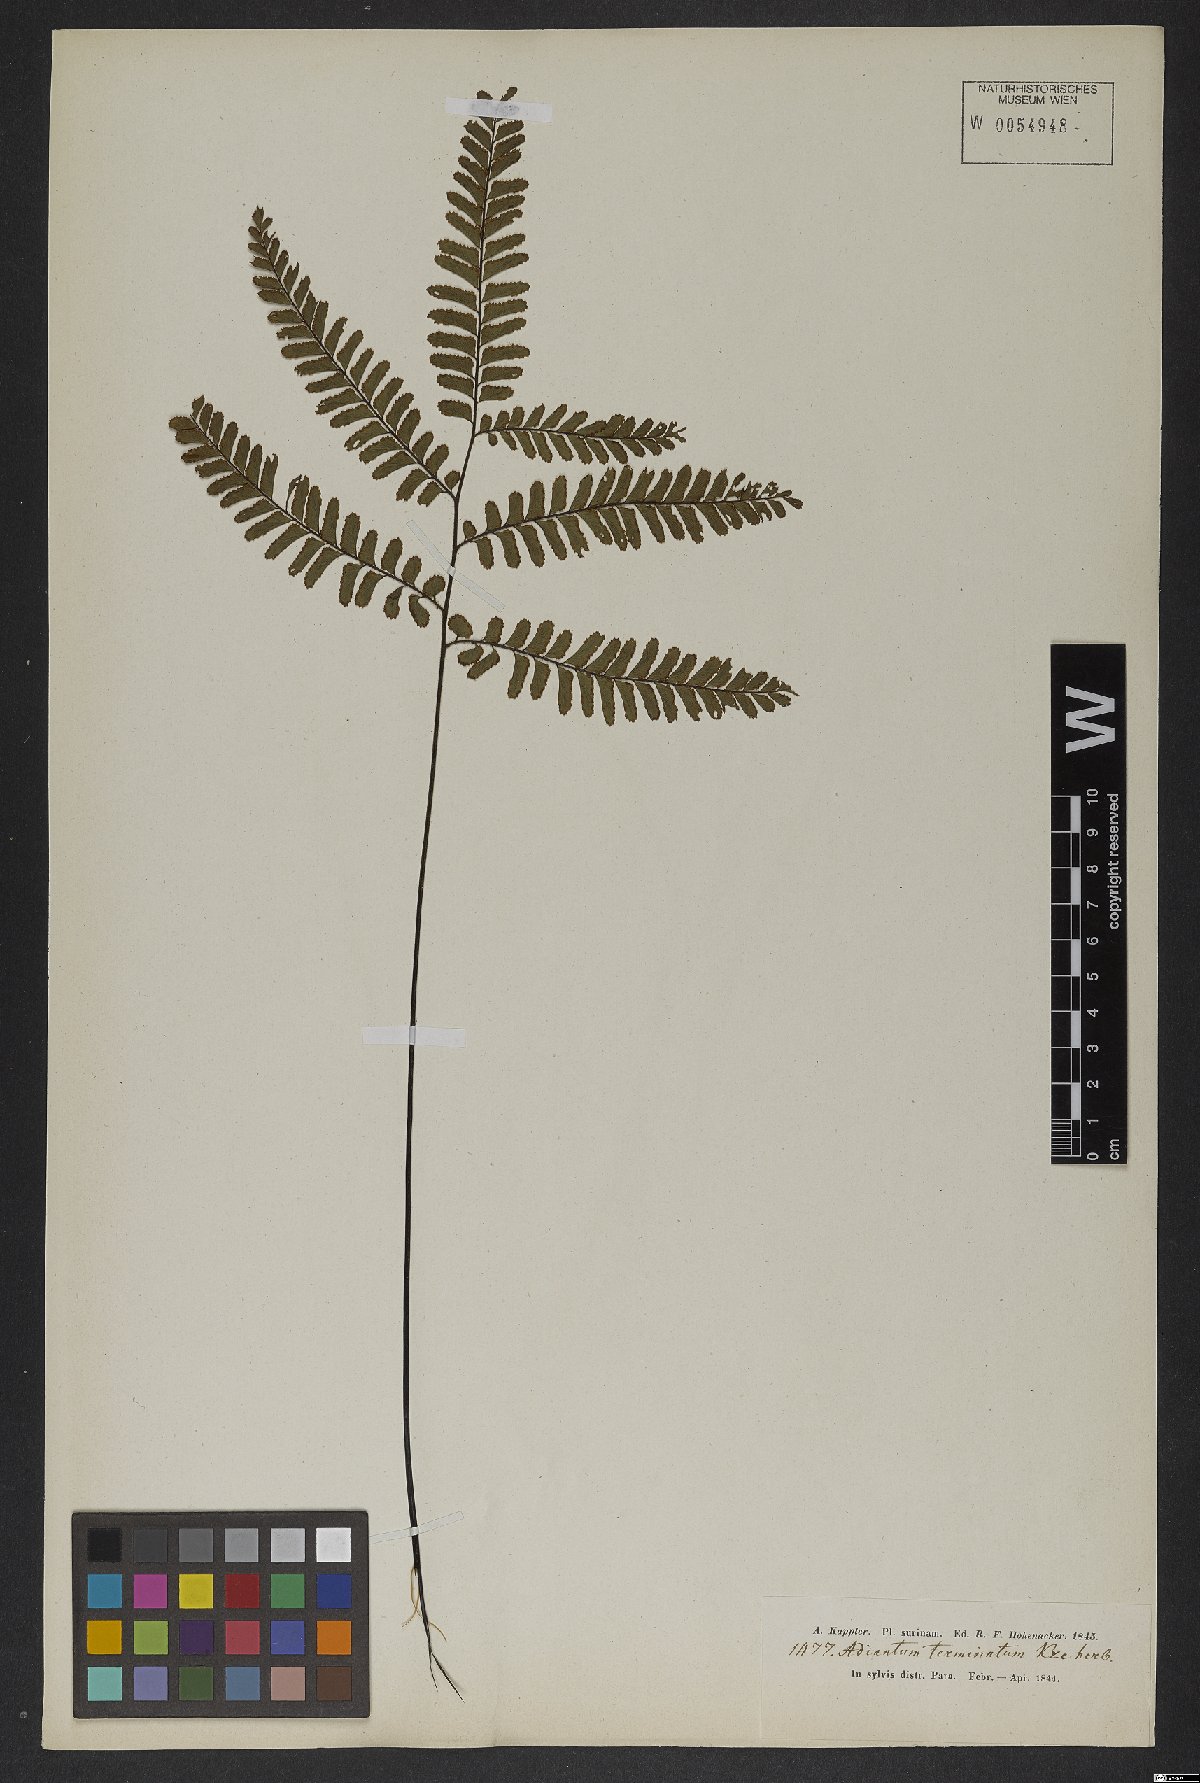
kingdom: Plantae
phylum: Tracheophyta
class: Polypodiopsida
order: Polypodiales
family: Pteridaceae
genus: Adiantum
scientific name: Adiantum terminatum
